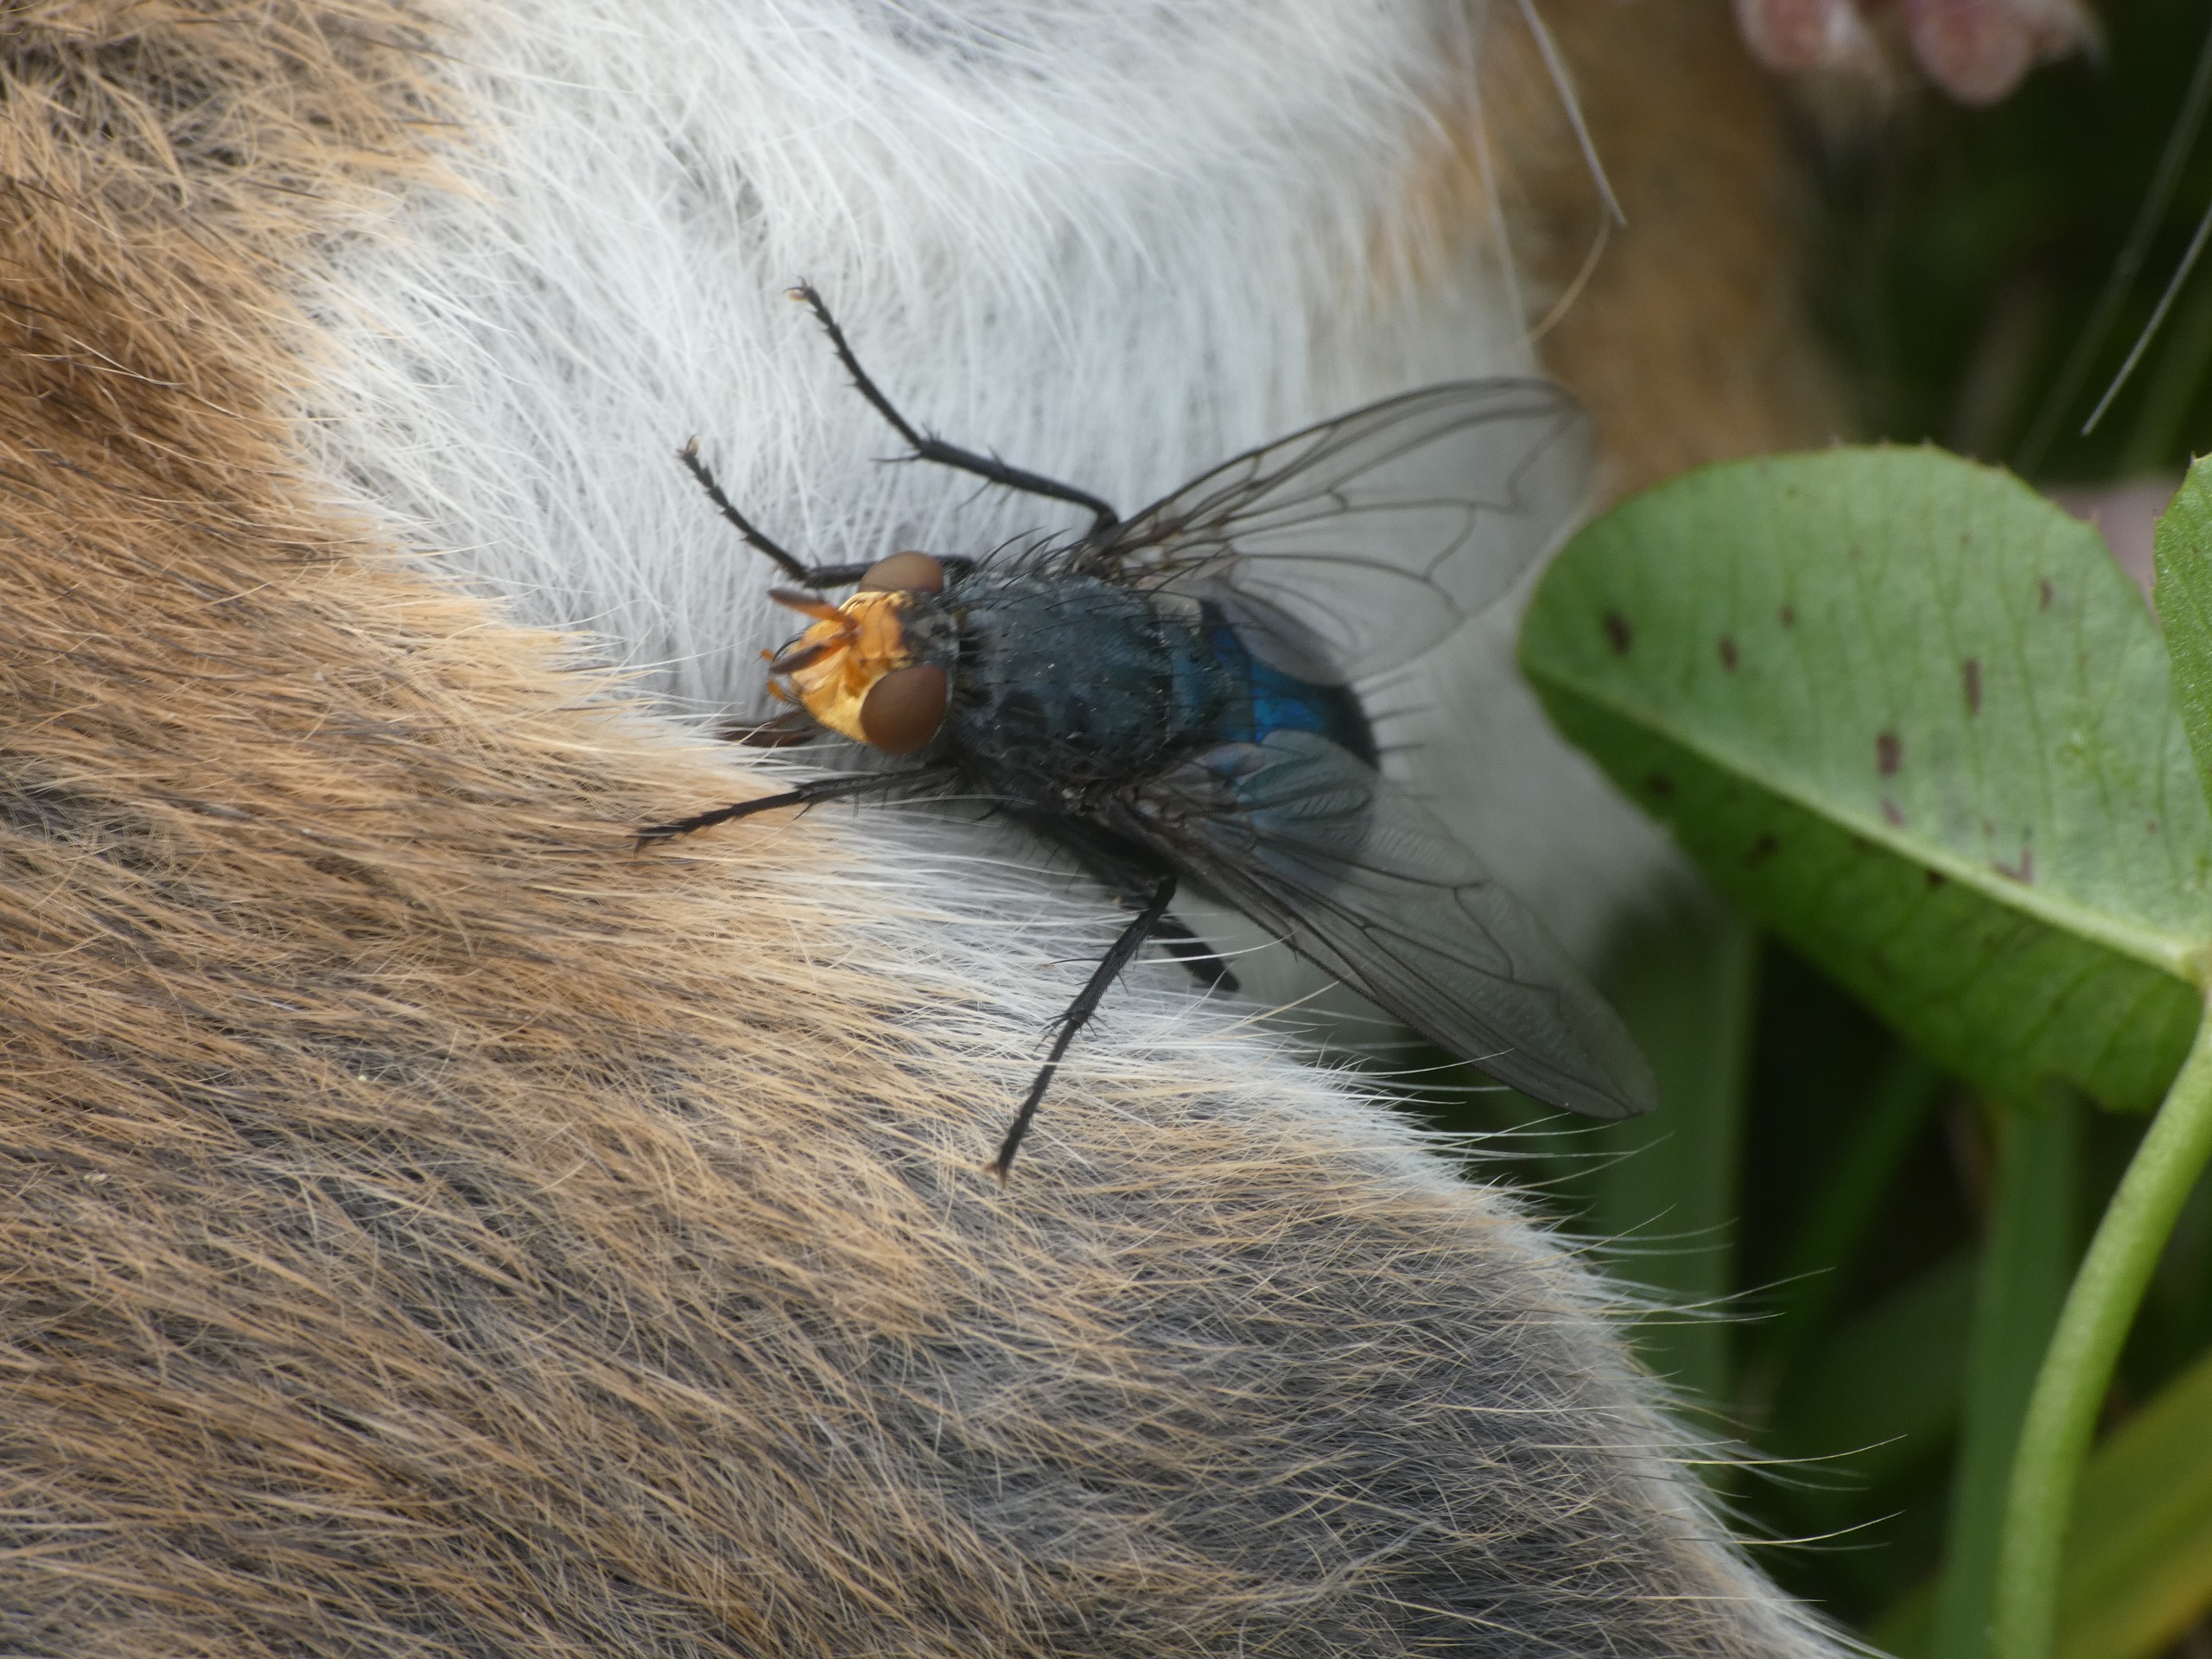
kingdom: Animalia
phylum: Arthropoda
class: Insecta
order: Diptera
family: Calliphoridae
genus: Cynomya
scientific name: Cynomya mortuorum
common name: Dødsflue
